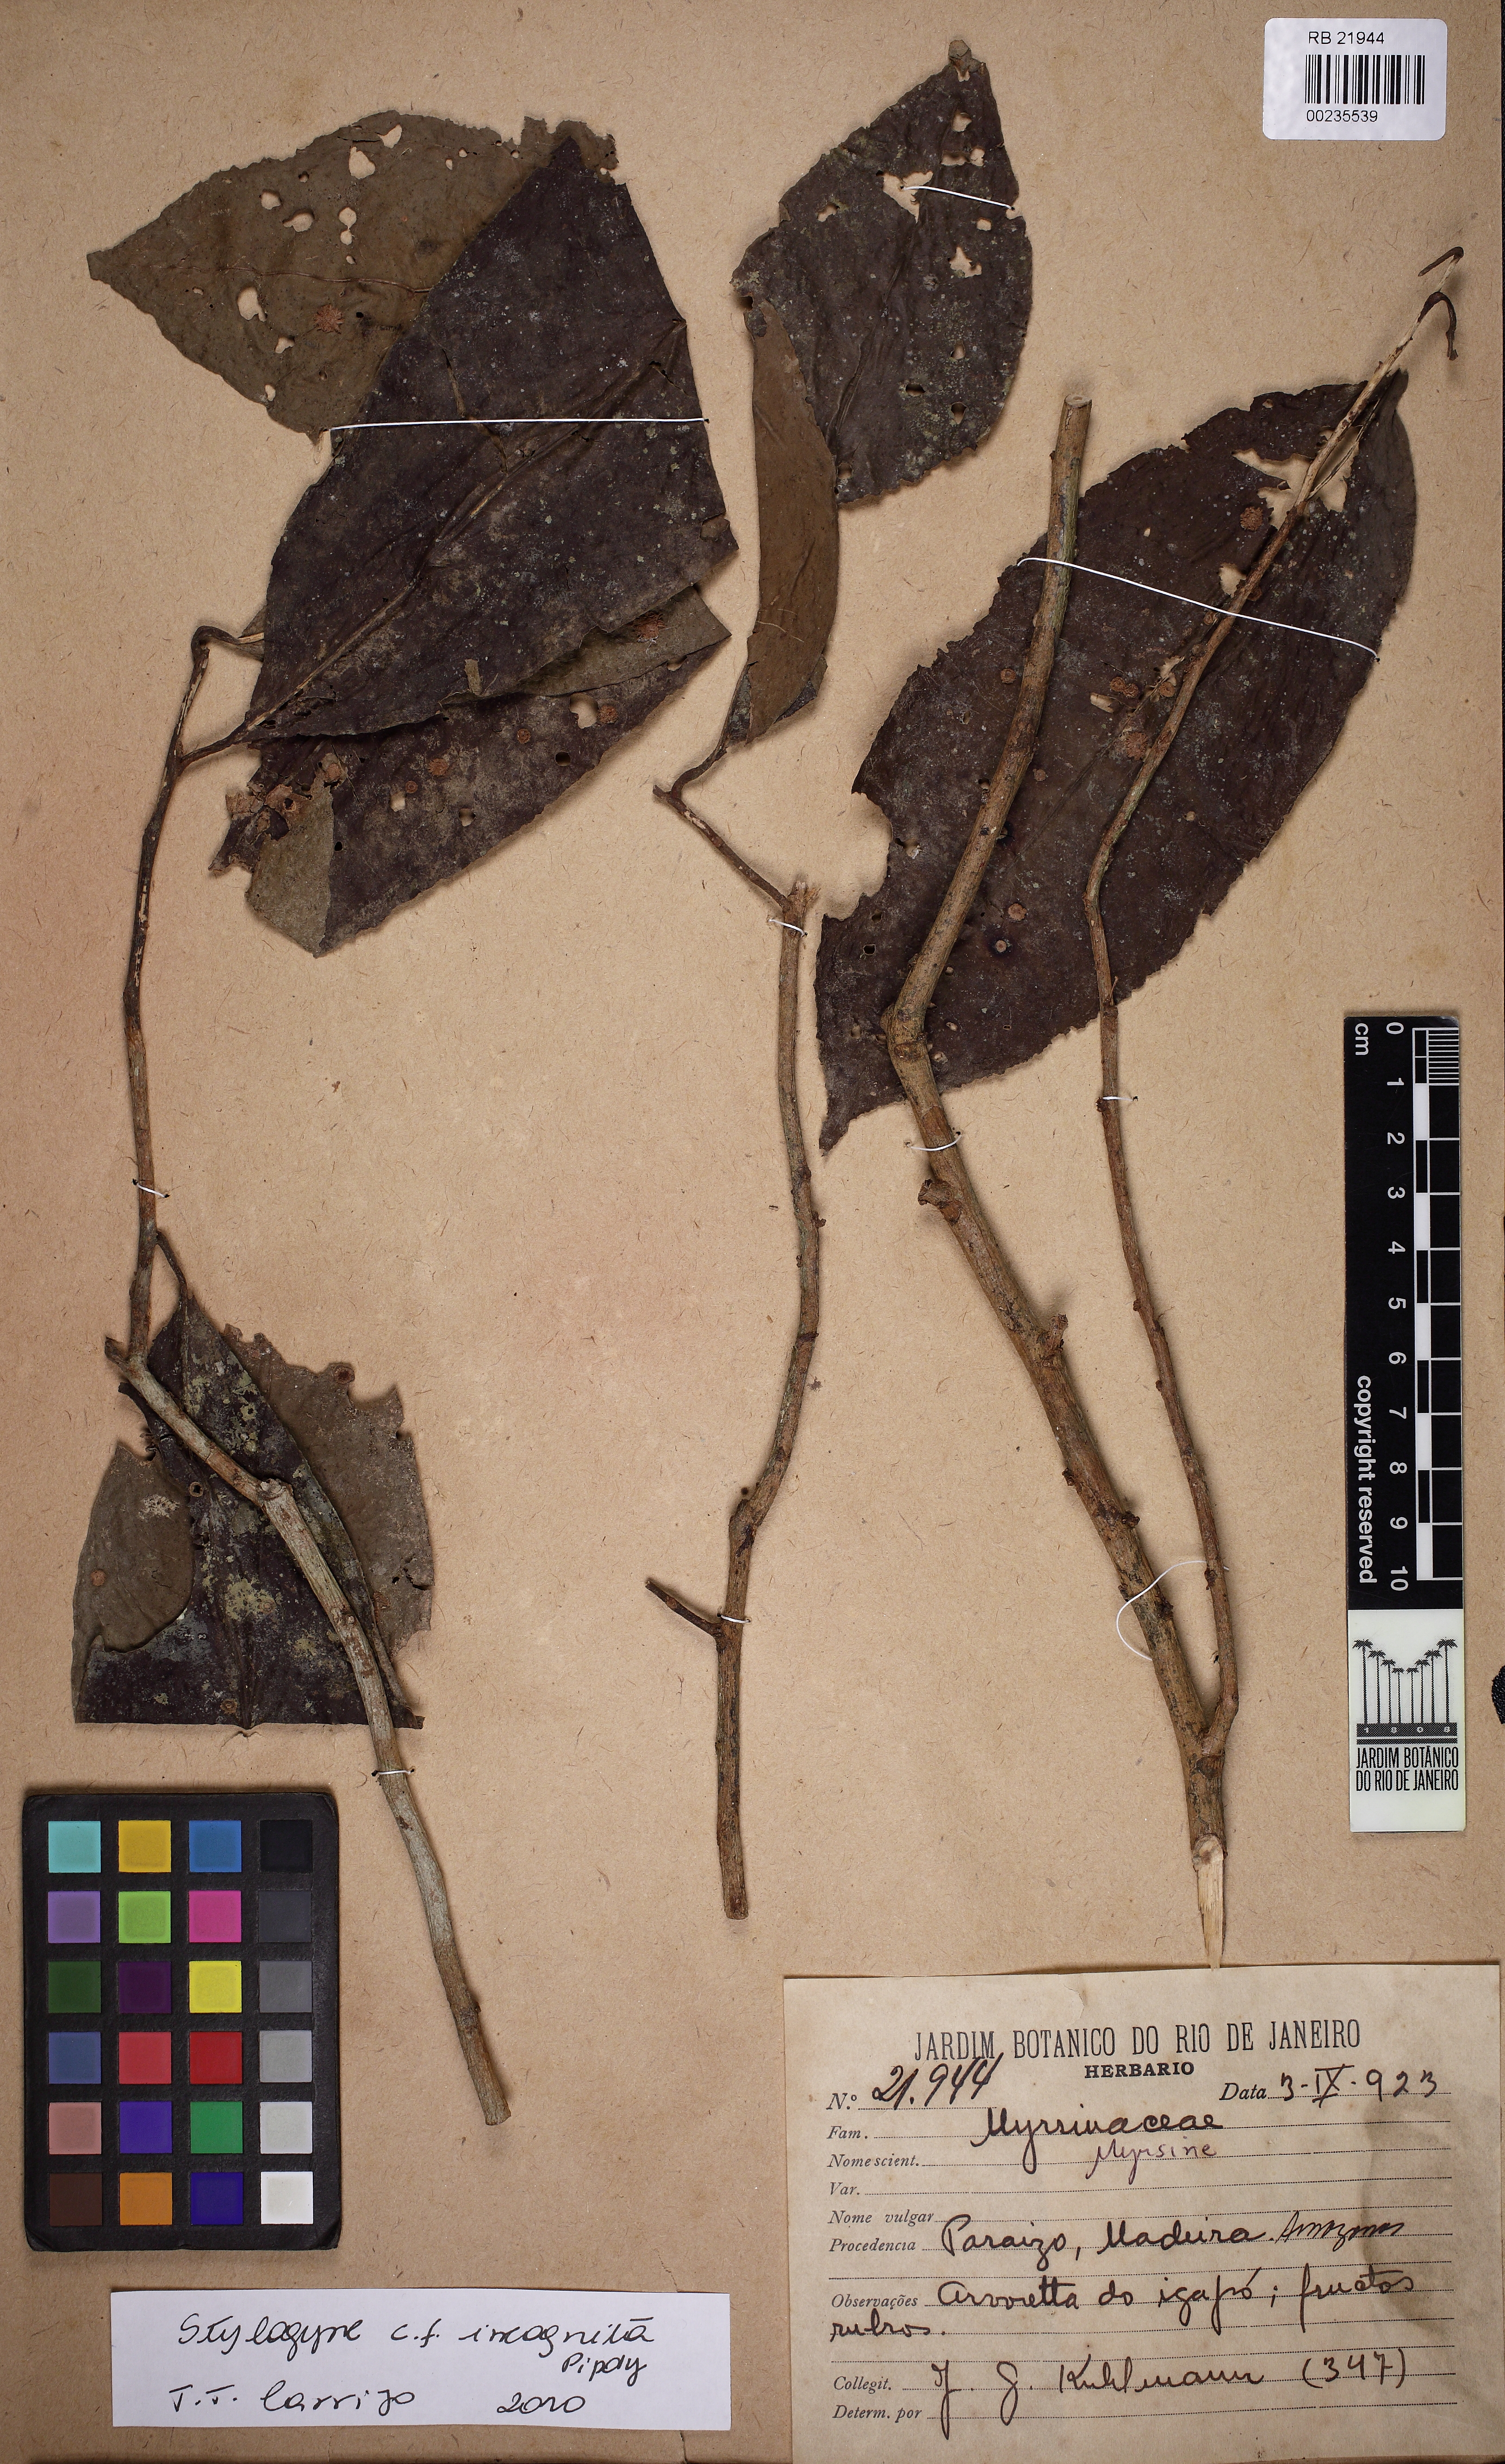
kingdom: Plantae
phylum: Tracheophyta
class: Magnoliopsida
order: Ericales
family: Primulaceae
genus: Stylogyne
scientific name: Stylogyne incognita
